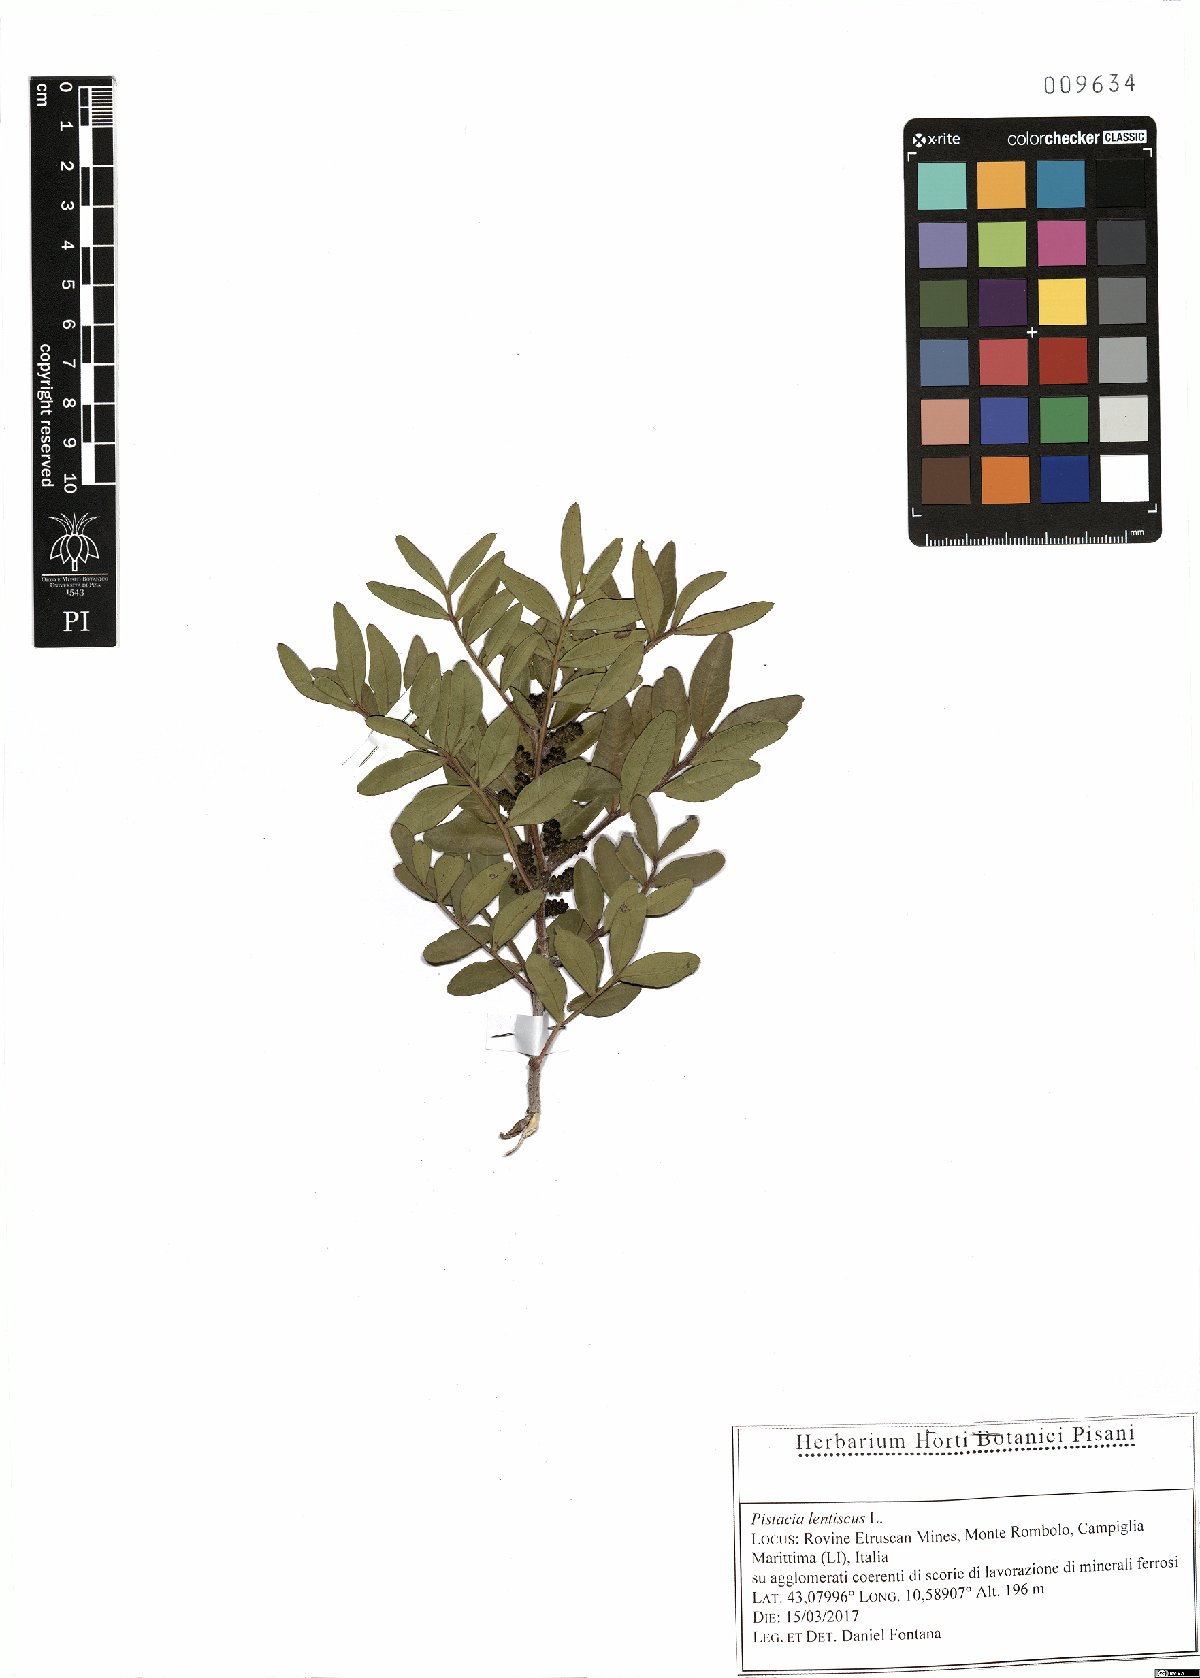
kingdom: Plantae
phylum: Tracheophyta
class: Magnoliopsida
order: Sapindales
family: Anacardiaceae
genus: Pistacia
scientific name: Pistacia lentiscus
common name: Lentisk
